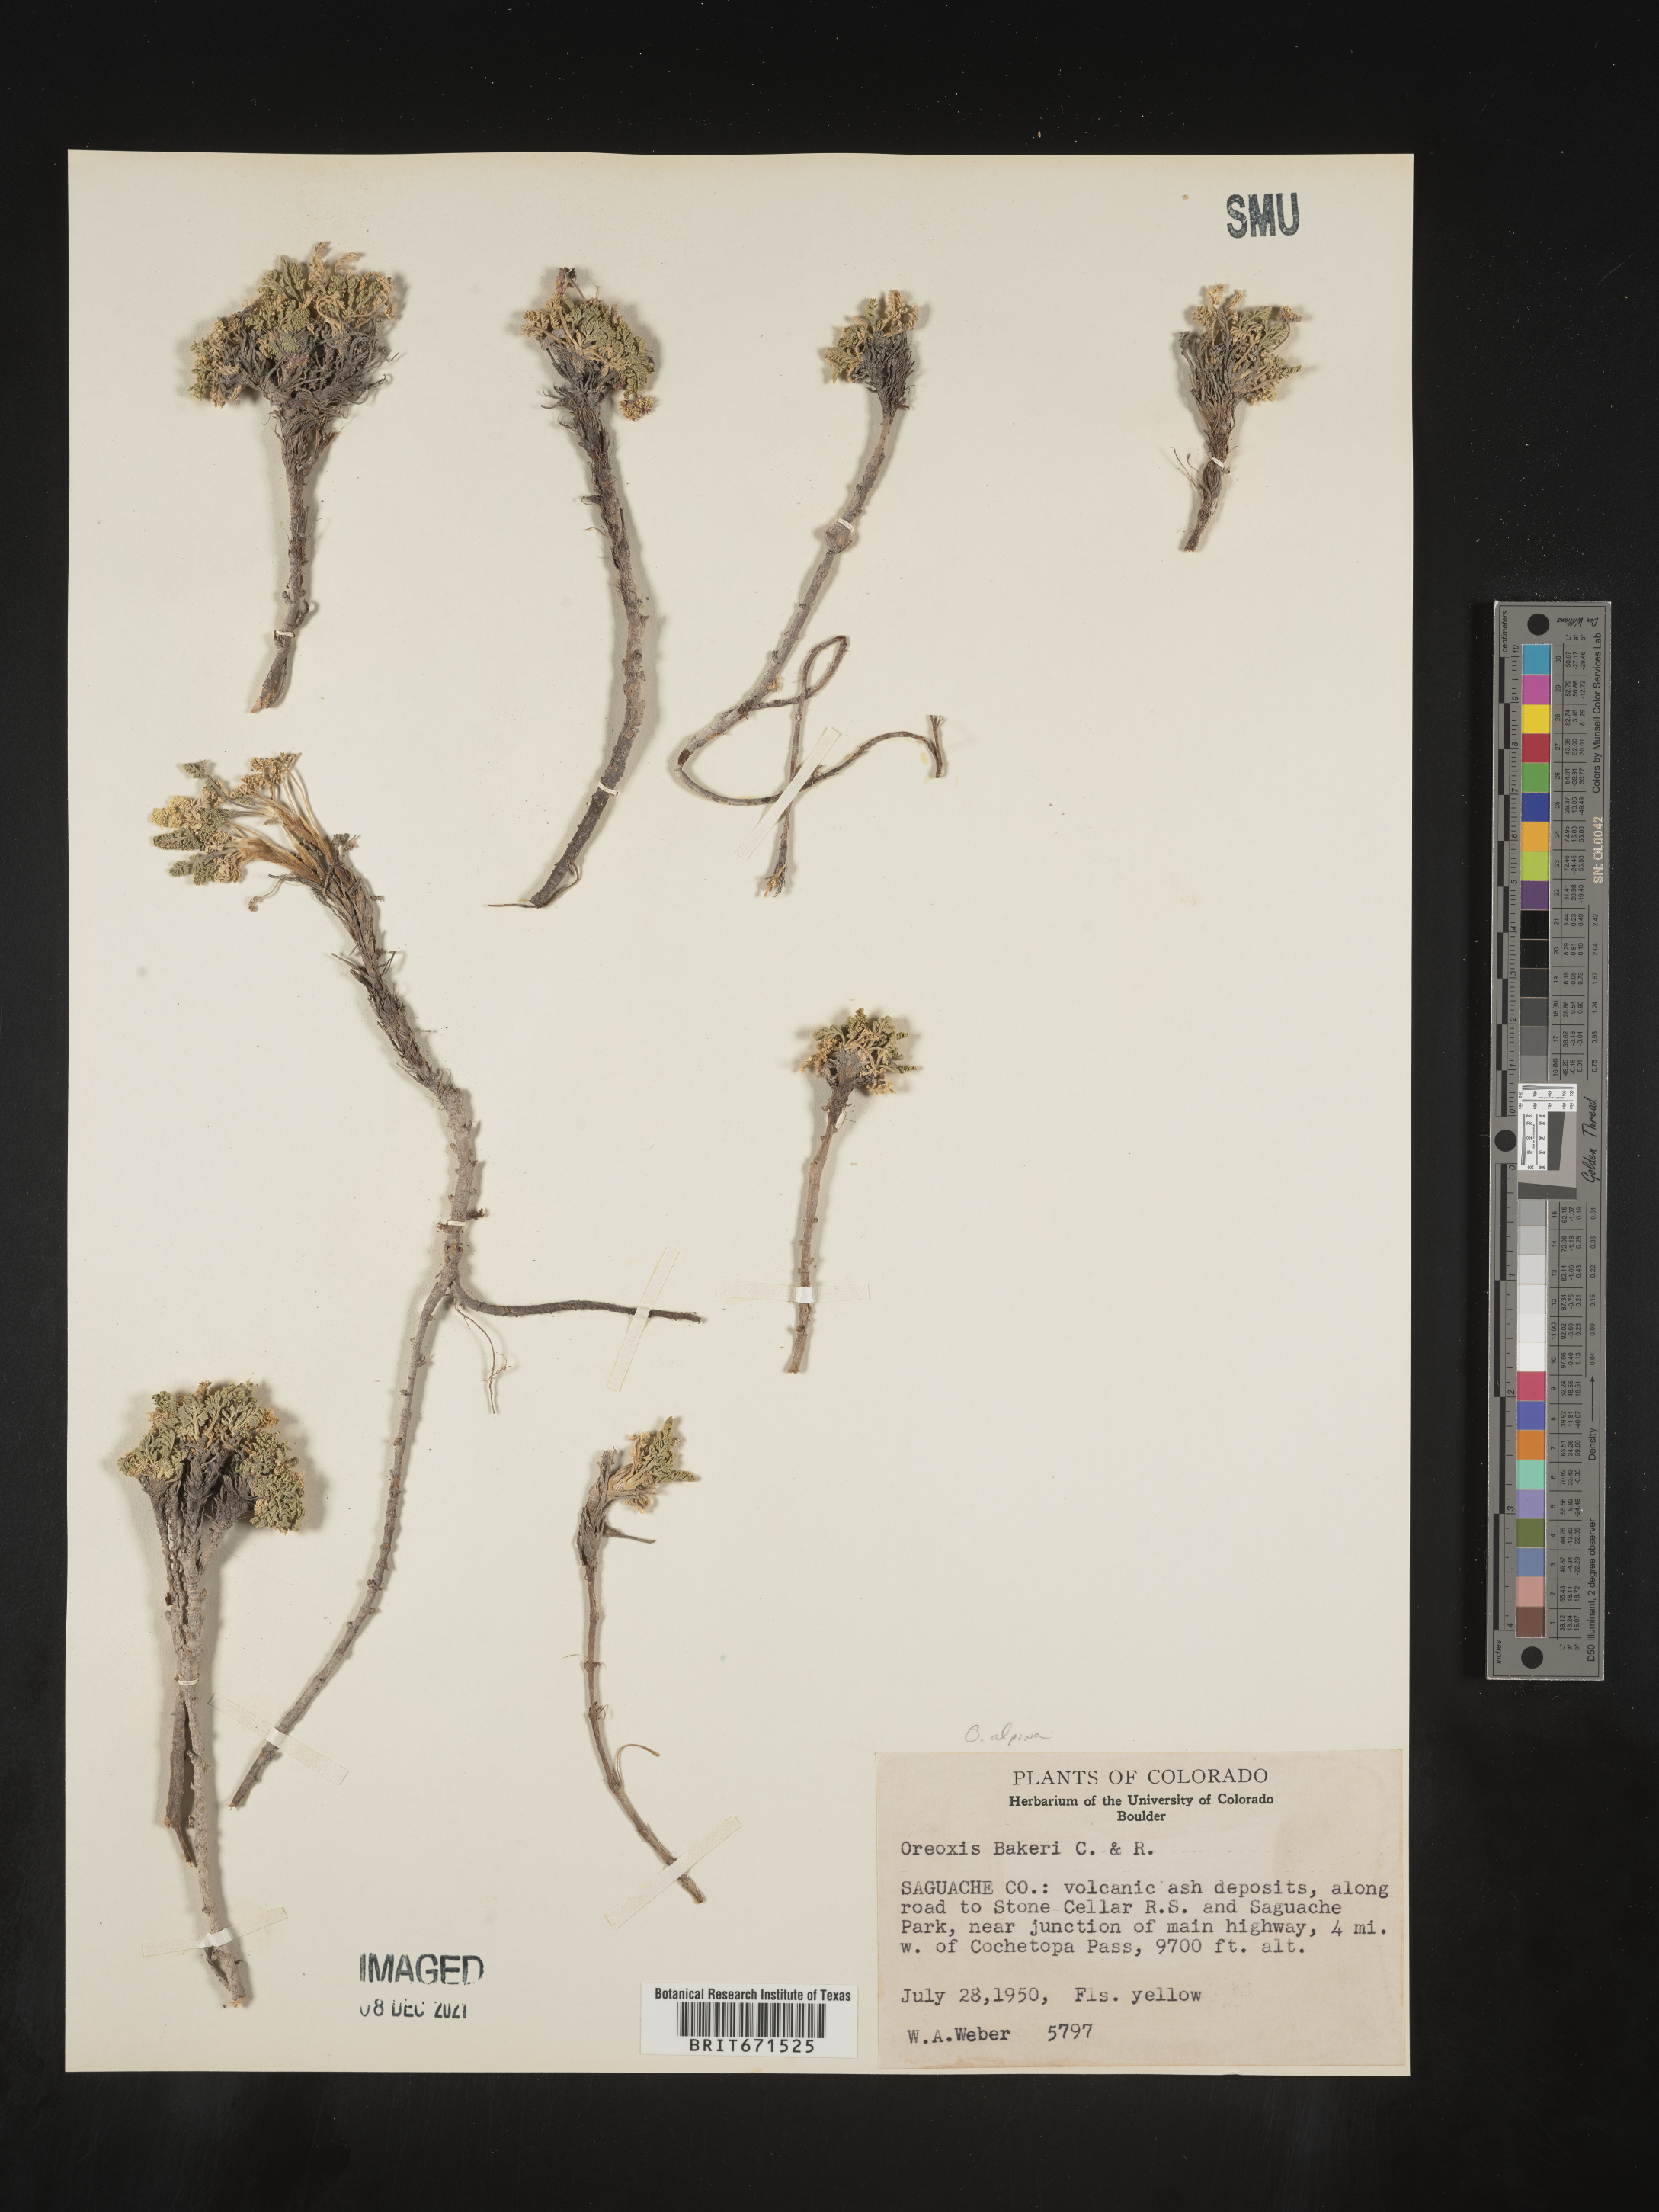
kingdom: Plantae
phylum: Tracheophyta
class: Magnoliopsida
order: Apiales
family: Apiaceae
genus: Oreoxis
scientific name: Oreoxis alpina
